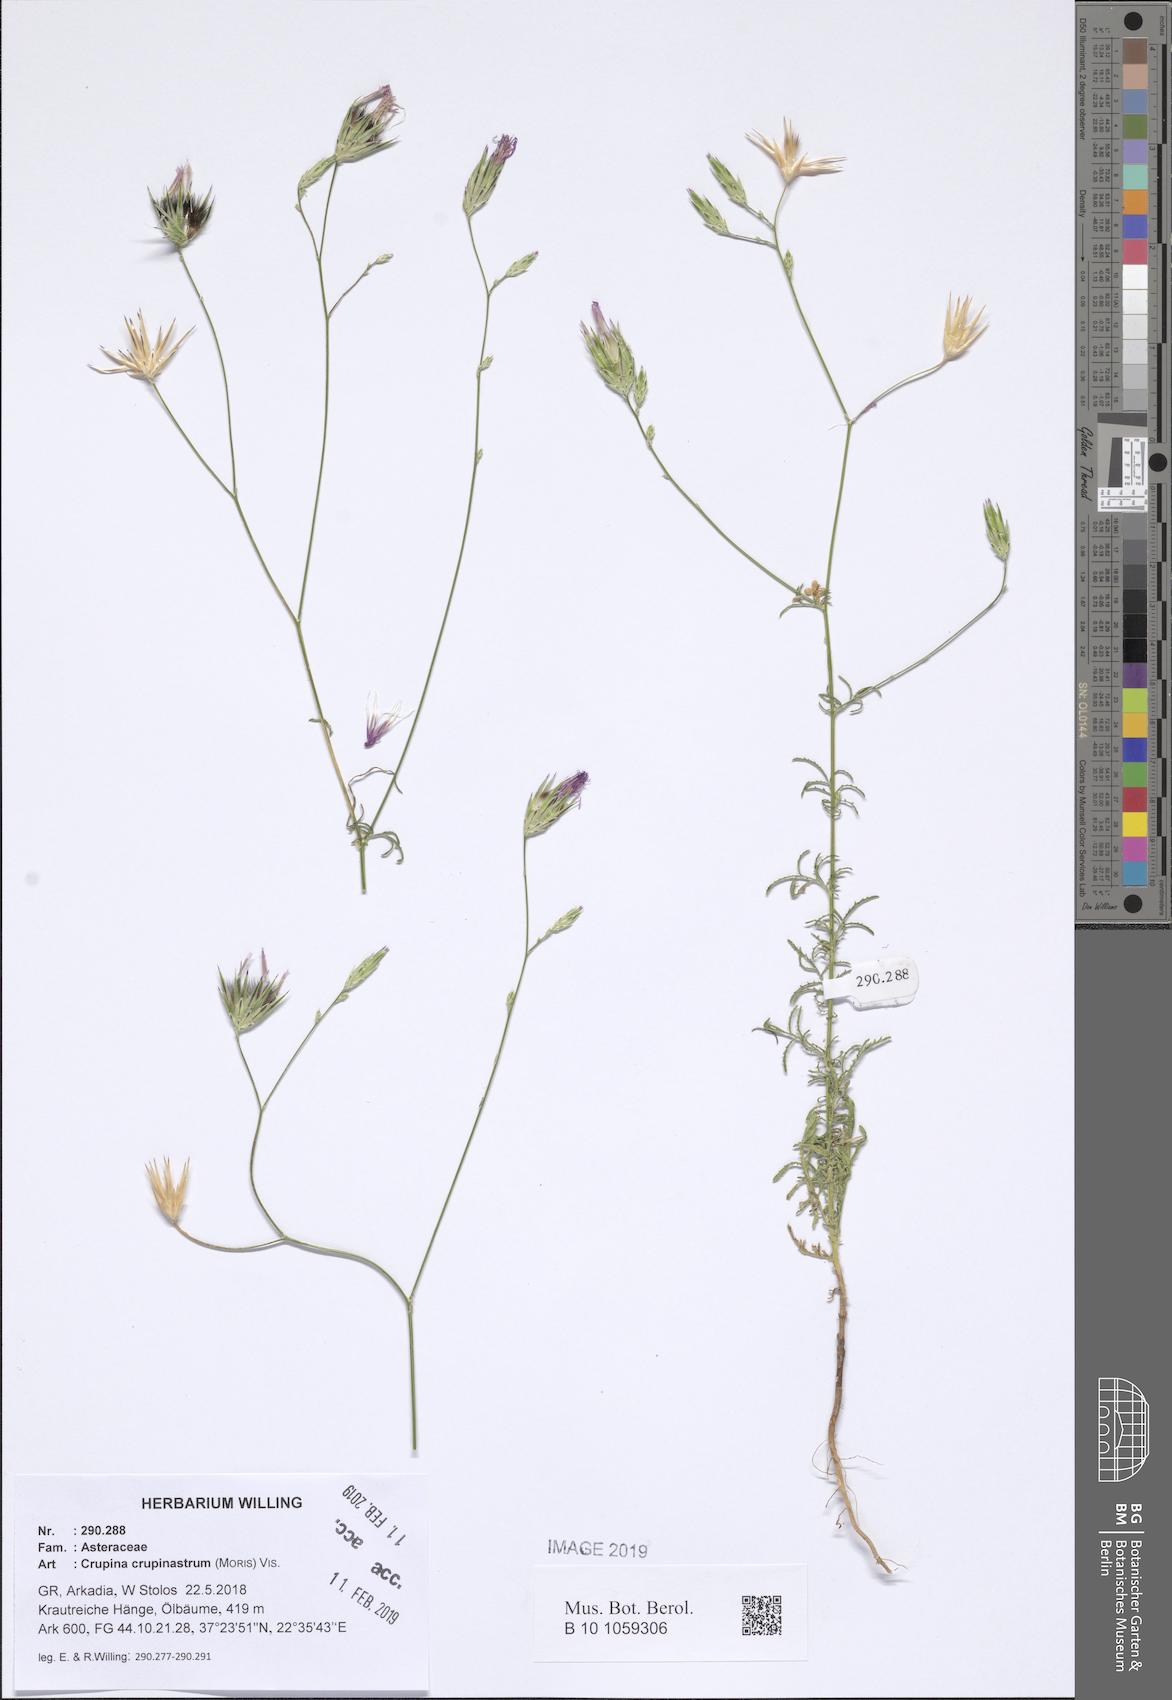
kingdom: Plantae
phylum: Tracheophyta
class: Magnoliopsida
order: Asterales
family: Asteraceae
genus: Crupina
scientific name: Crupina crupinastrum
